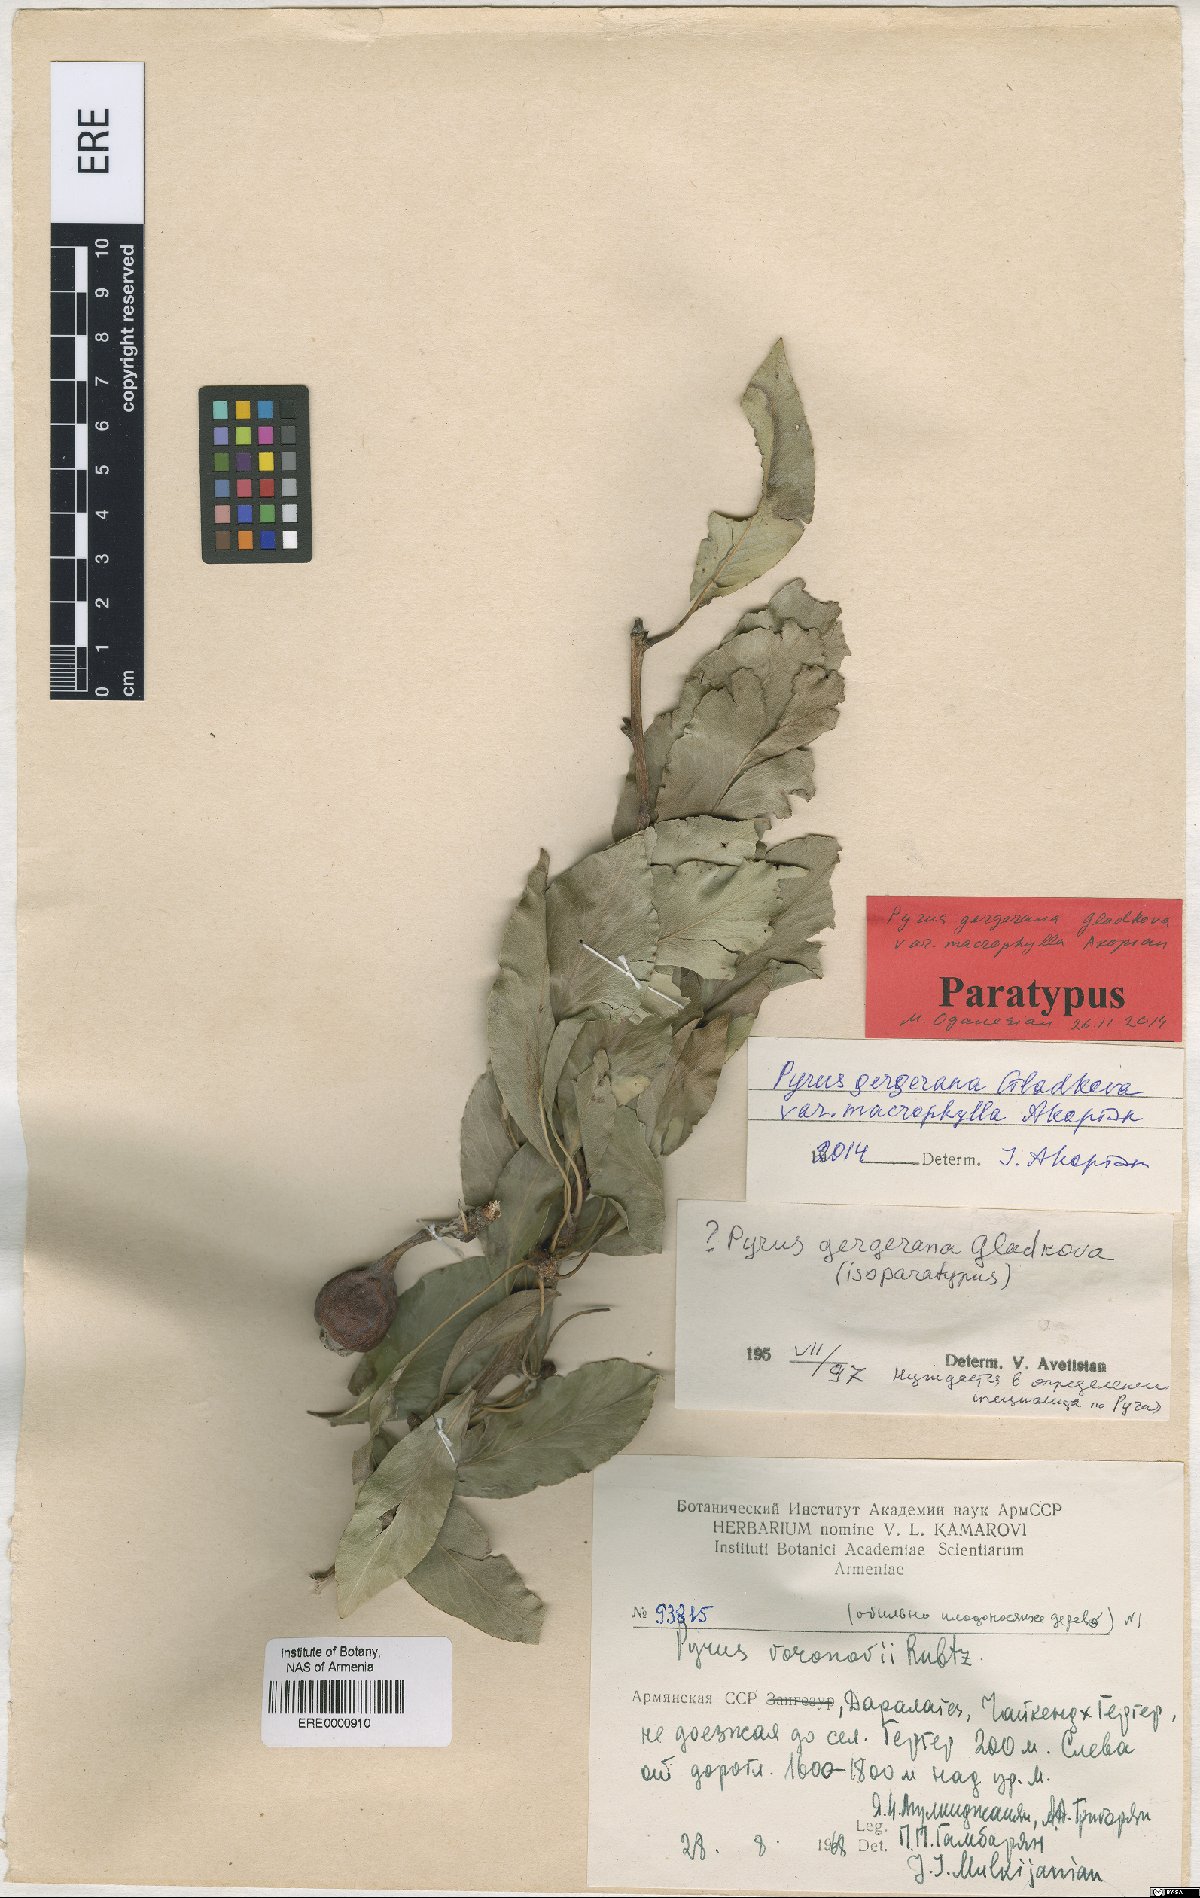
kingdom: Plantae
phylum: Tracheophyta
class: Magnoliopsida
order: Rosales
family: Rosaceae
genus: Pyrus
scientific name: Pyrus gergerana
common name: Gergeranian pear
